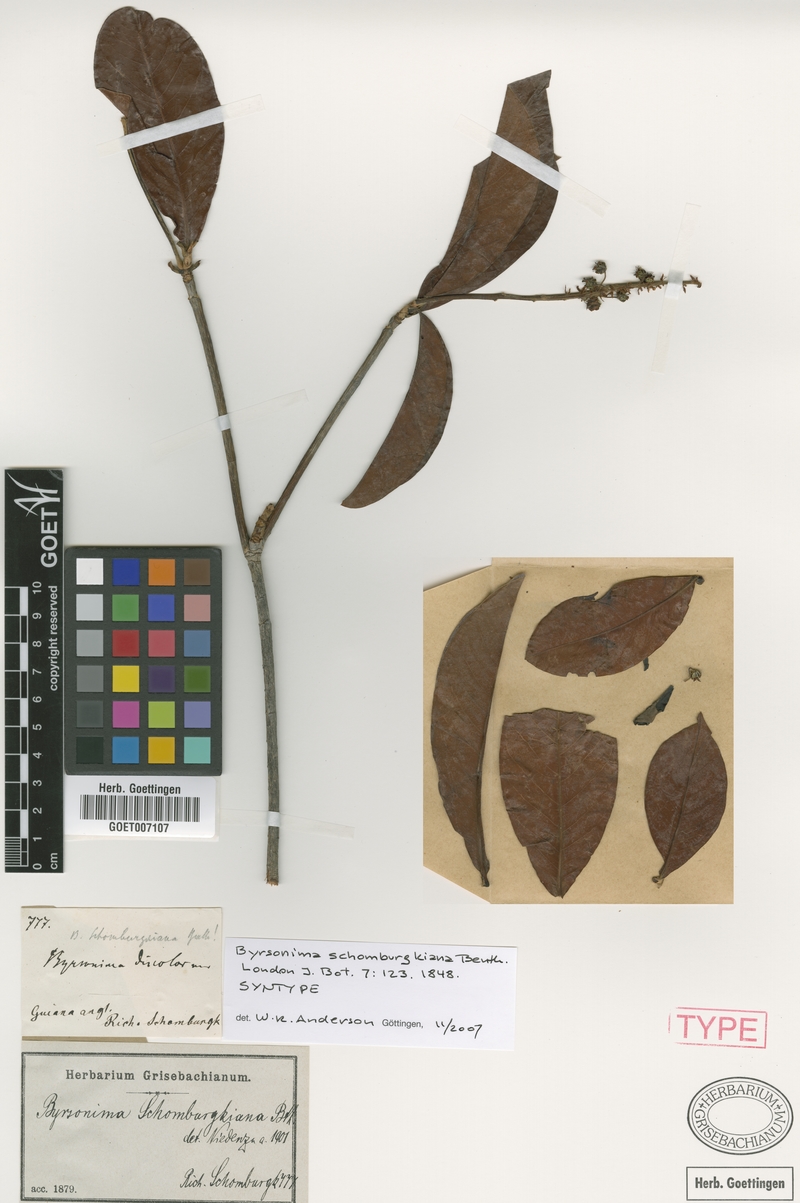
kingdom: Plantae
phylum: Tracheophyta
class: Magnoliopsida
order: Malpighiales
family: Malpighiaceae
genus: Byrsonima
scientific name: Byrsonima schomburgkiana
